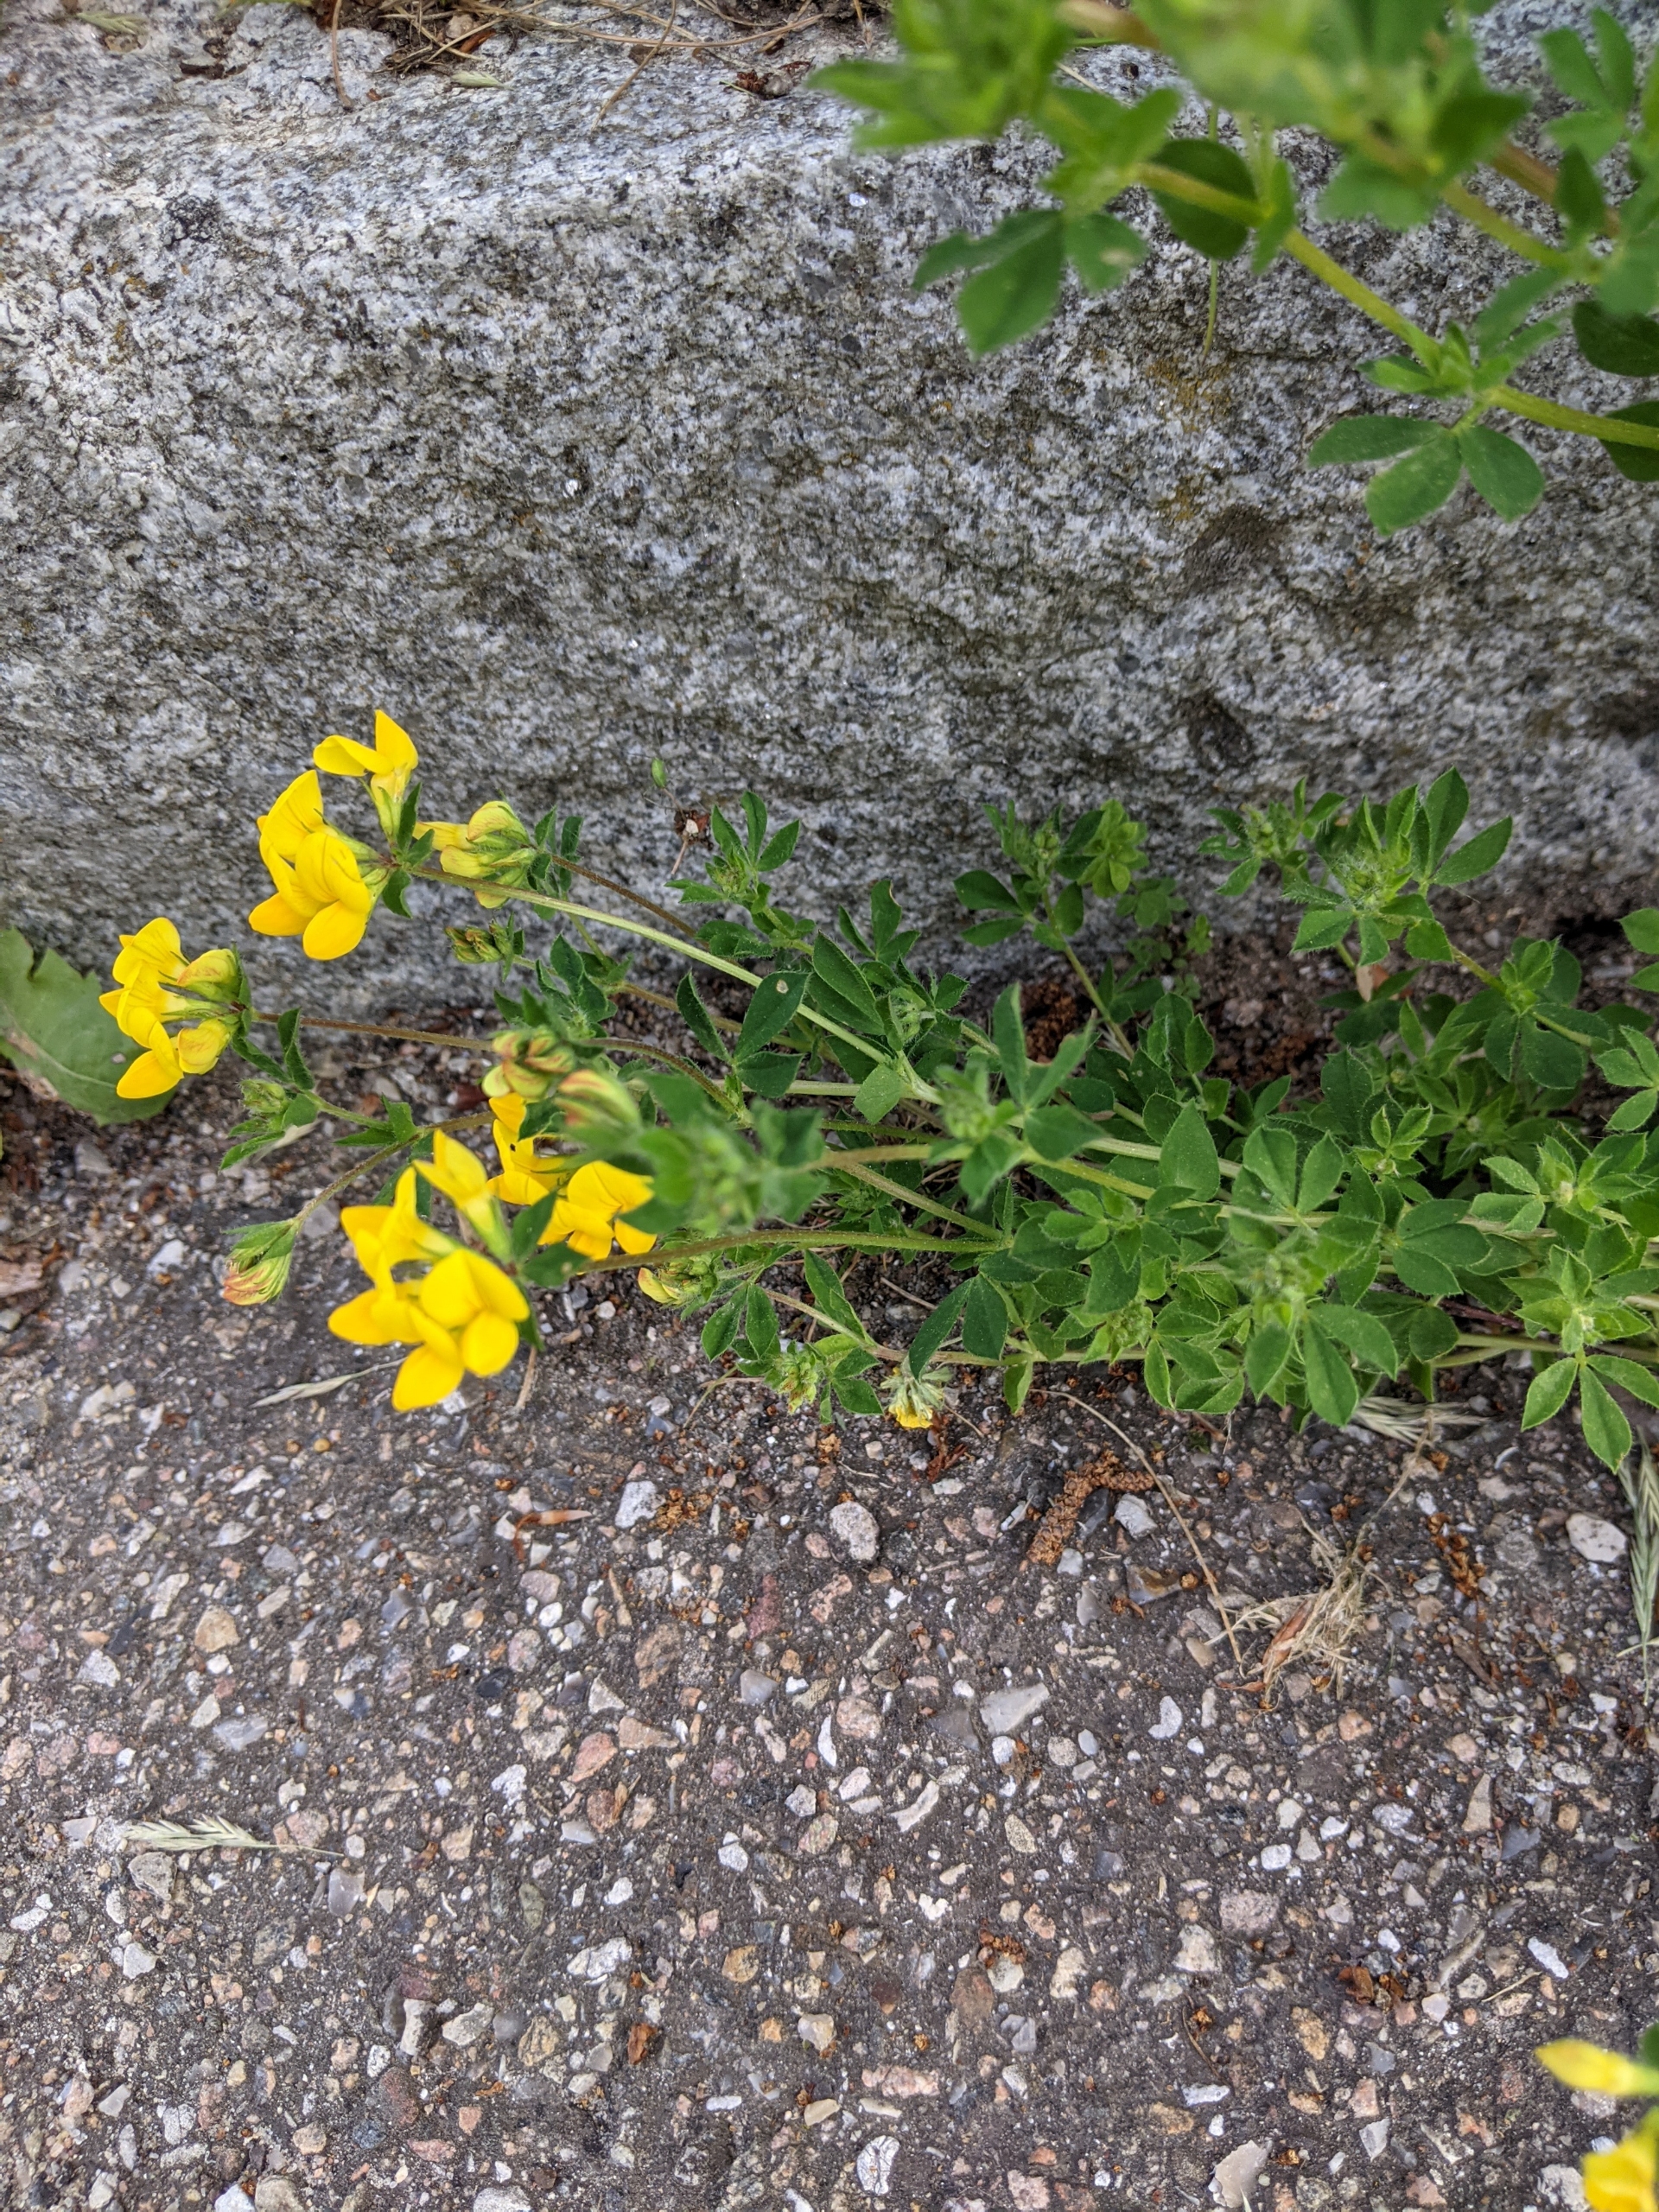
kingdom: Plantae
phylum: Tracheophyta
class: Magnoliopsida
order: Fabales
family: Fabaceae
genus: Lotus
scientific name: Lotus corniculatus
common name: Almindelig kællingetand
